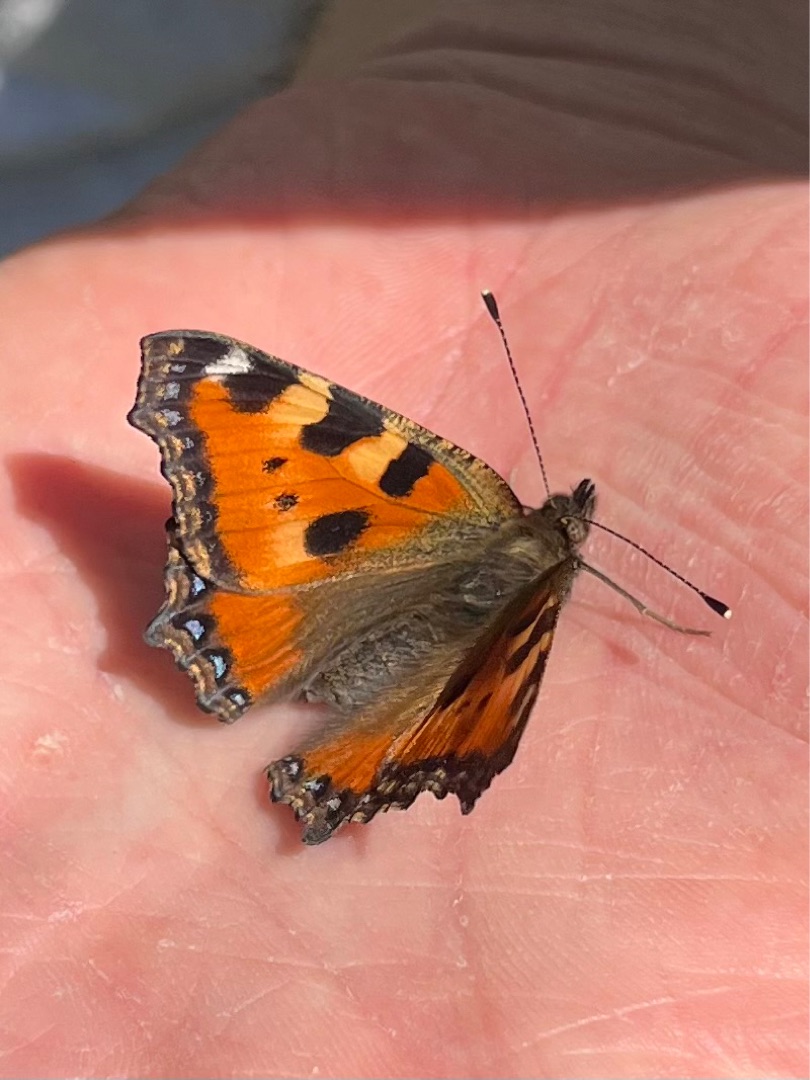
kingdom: Animalia
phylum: Arthropoda
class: Insecta
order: Lepidoptera
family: Nymphalidae
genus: Aglais
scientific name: Aglais urticae
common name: Nældens takvinge
